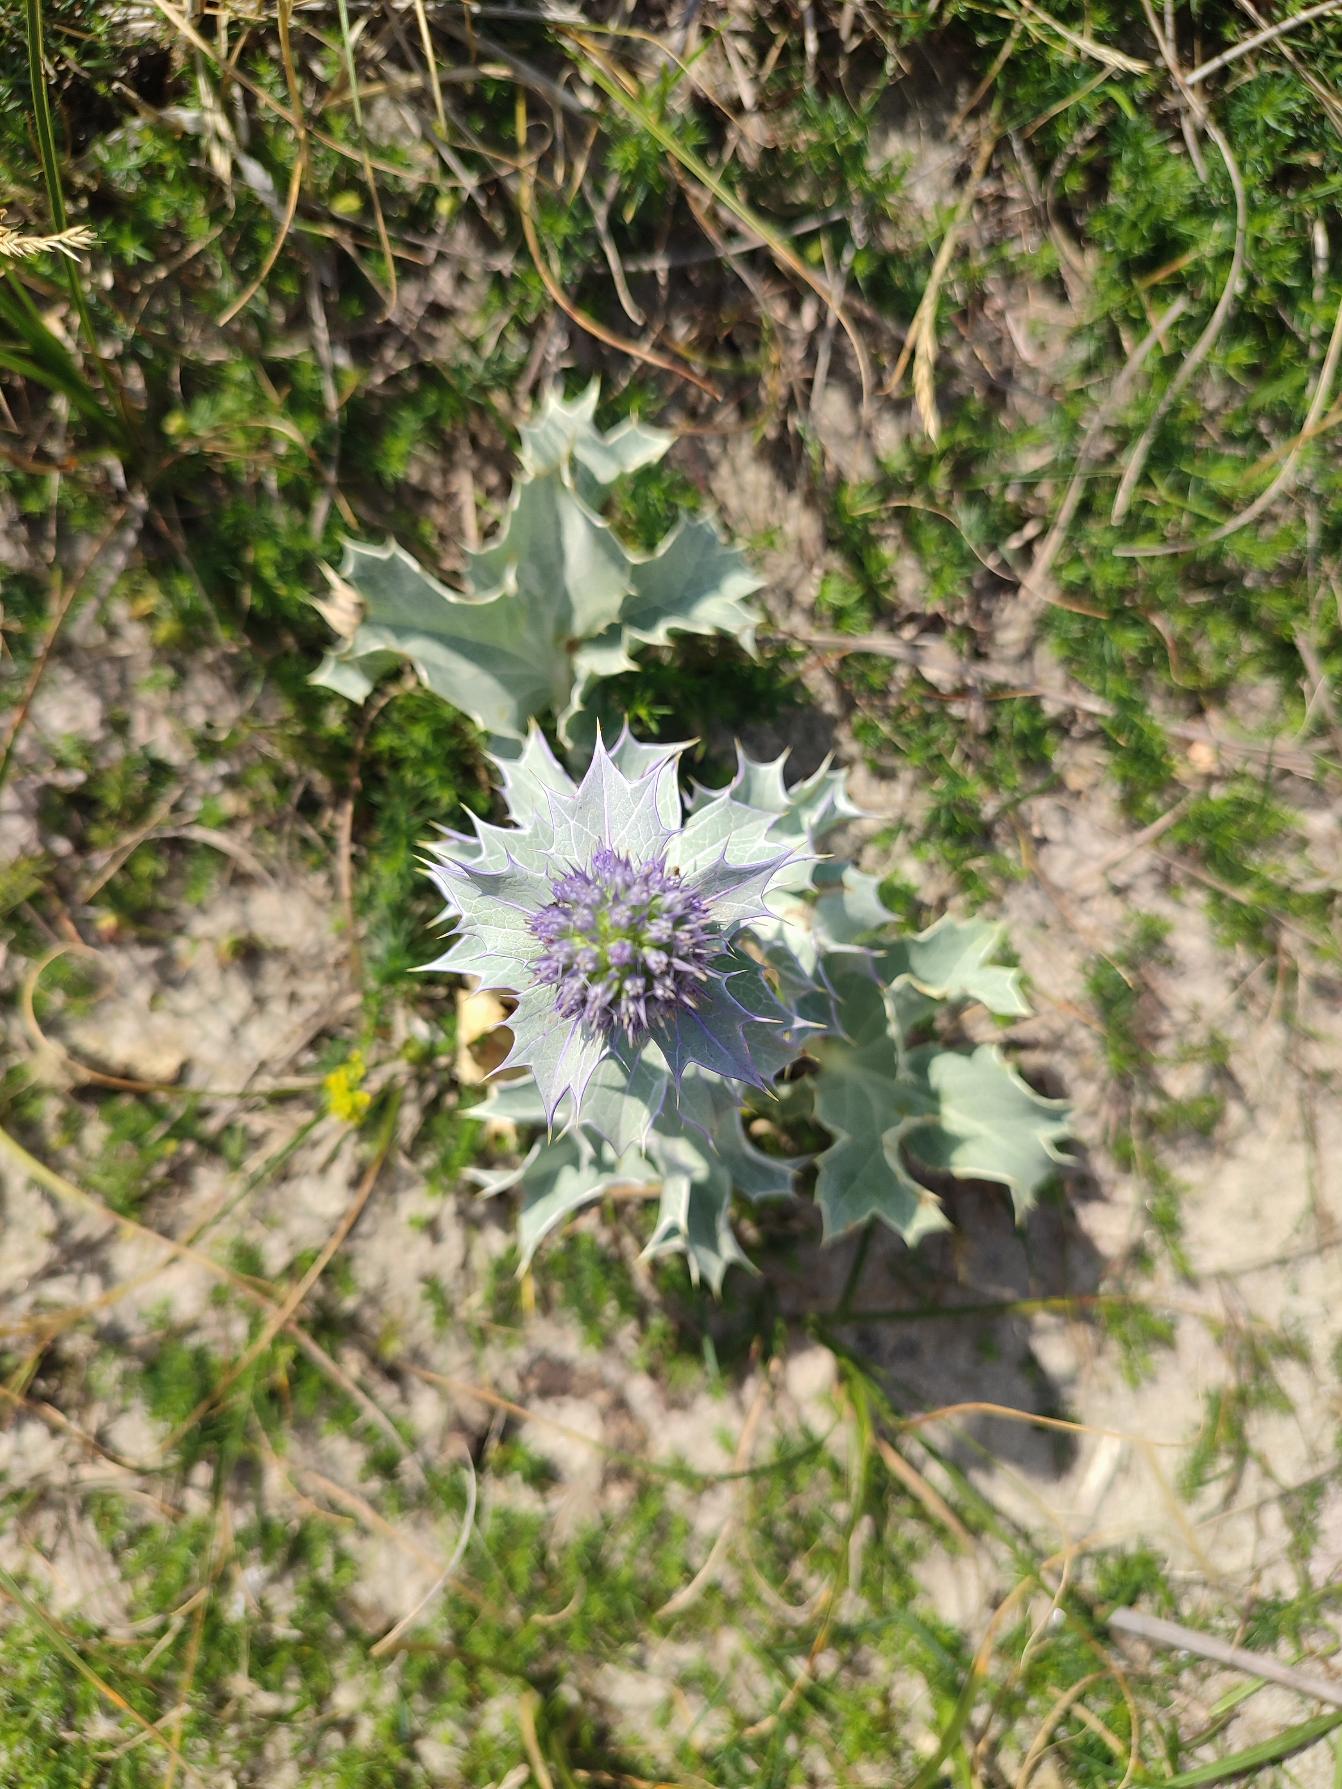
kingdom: Plantae
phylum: Tracheophyta
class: Magnoliopsida
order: Apiales
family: Apiaceae
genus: Eryngium
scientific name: Eryngium maritimum
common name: Strand-mandstro
